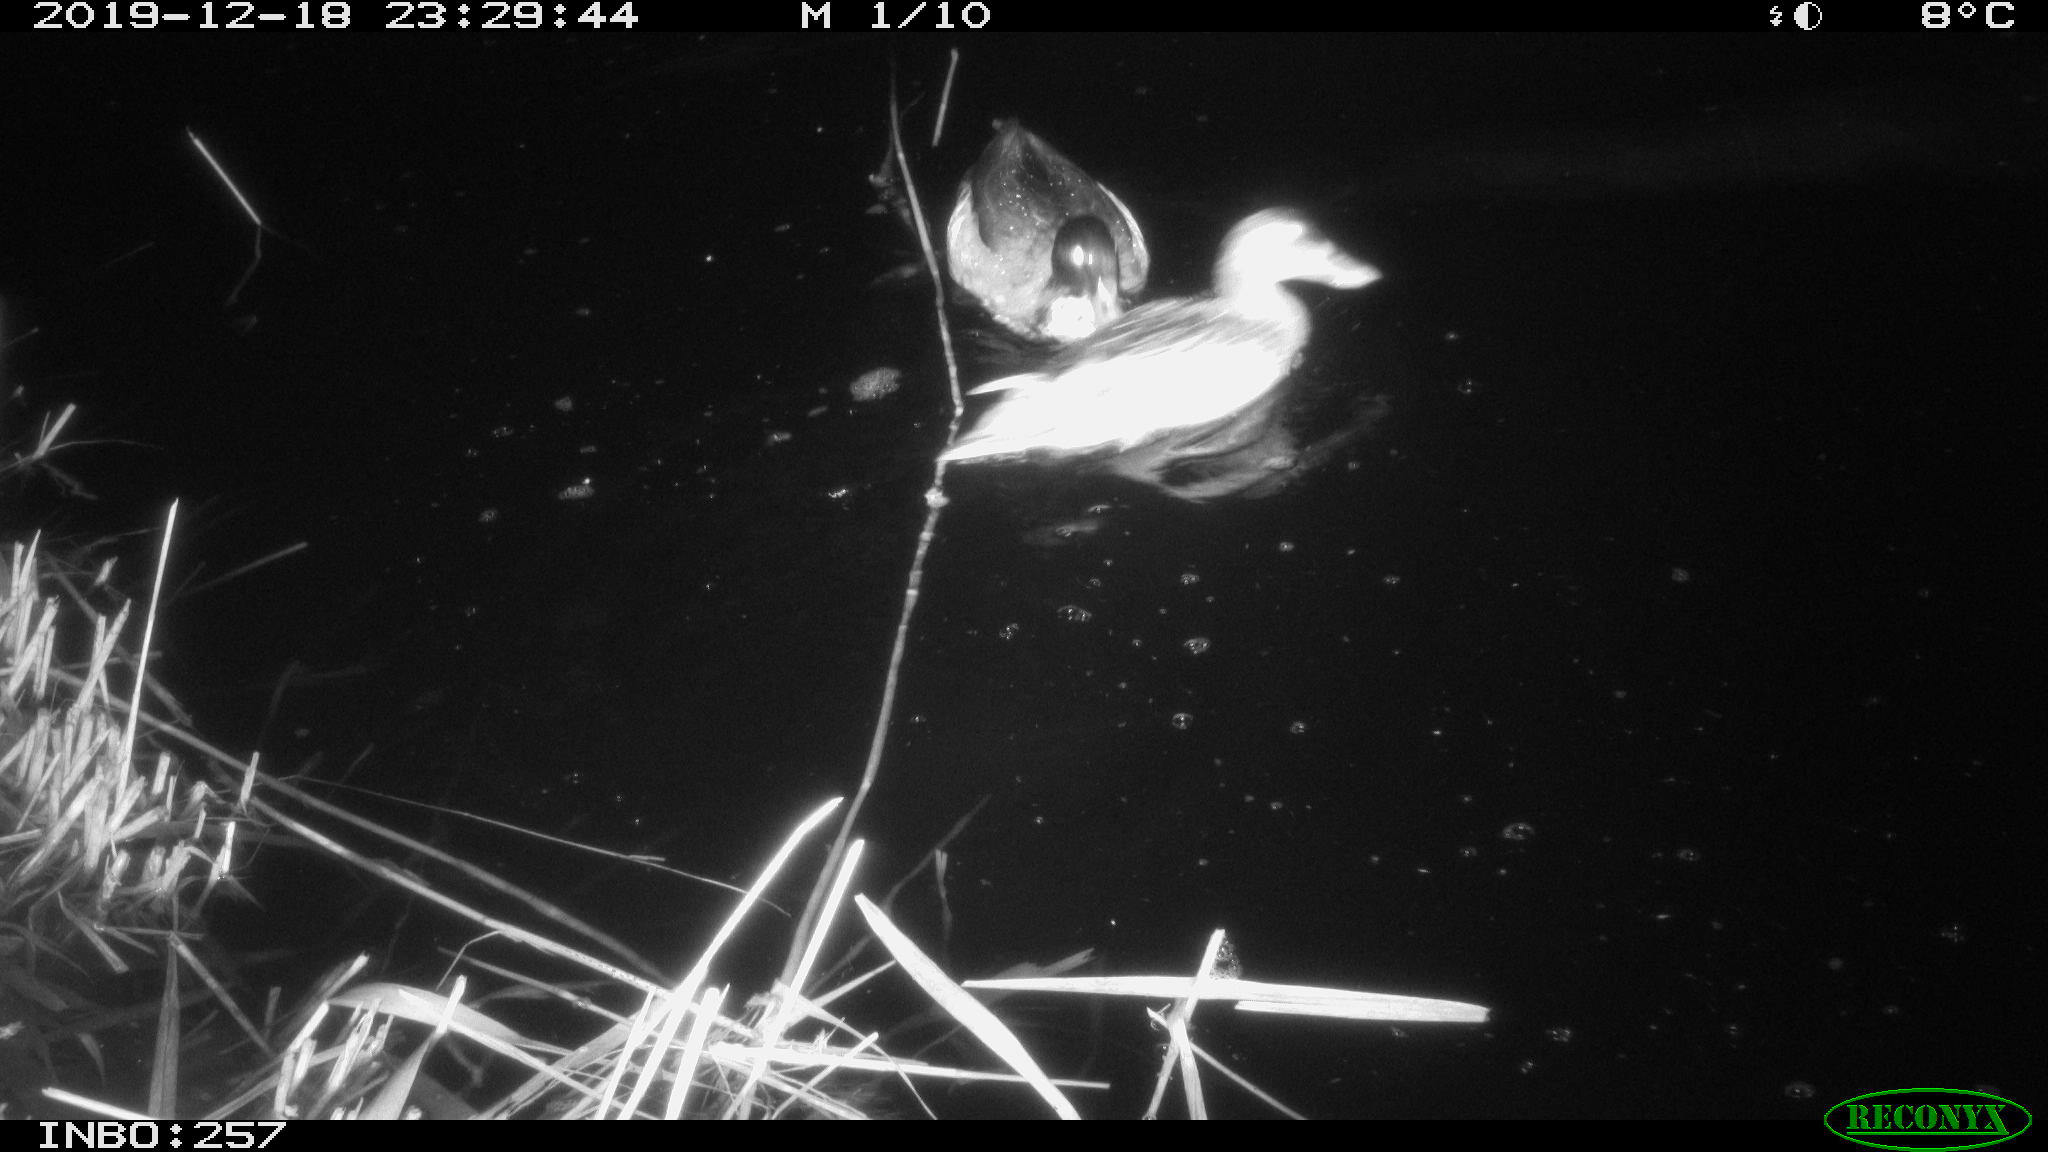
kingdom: Animalia
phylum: Chordata
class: Aves
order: Anseriformes
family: Anatidae
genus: Anas
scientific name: Anas platyrhynchos
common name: Mallard
